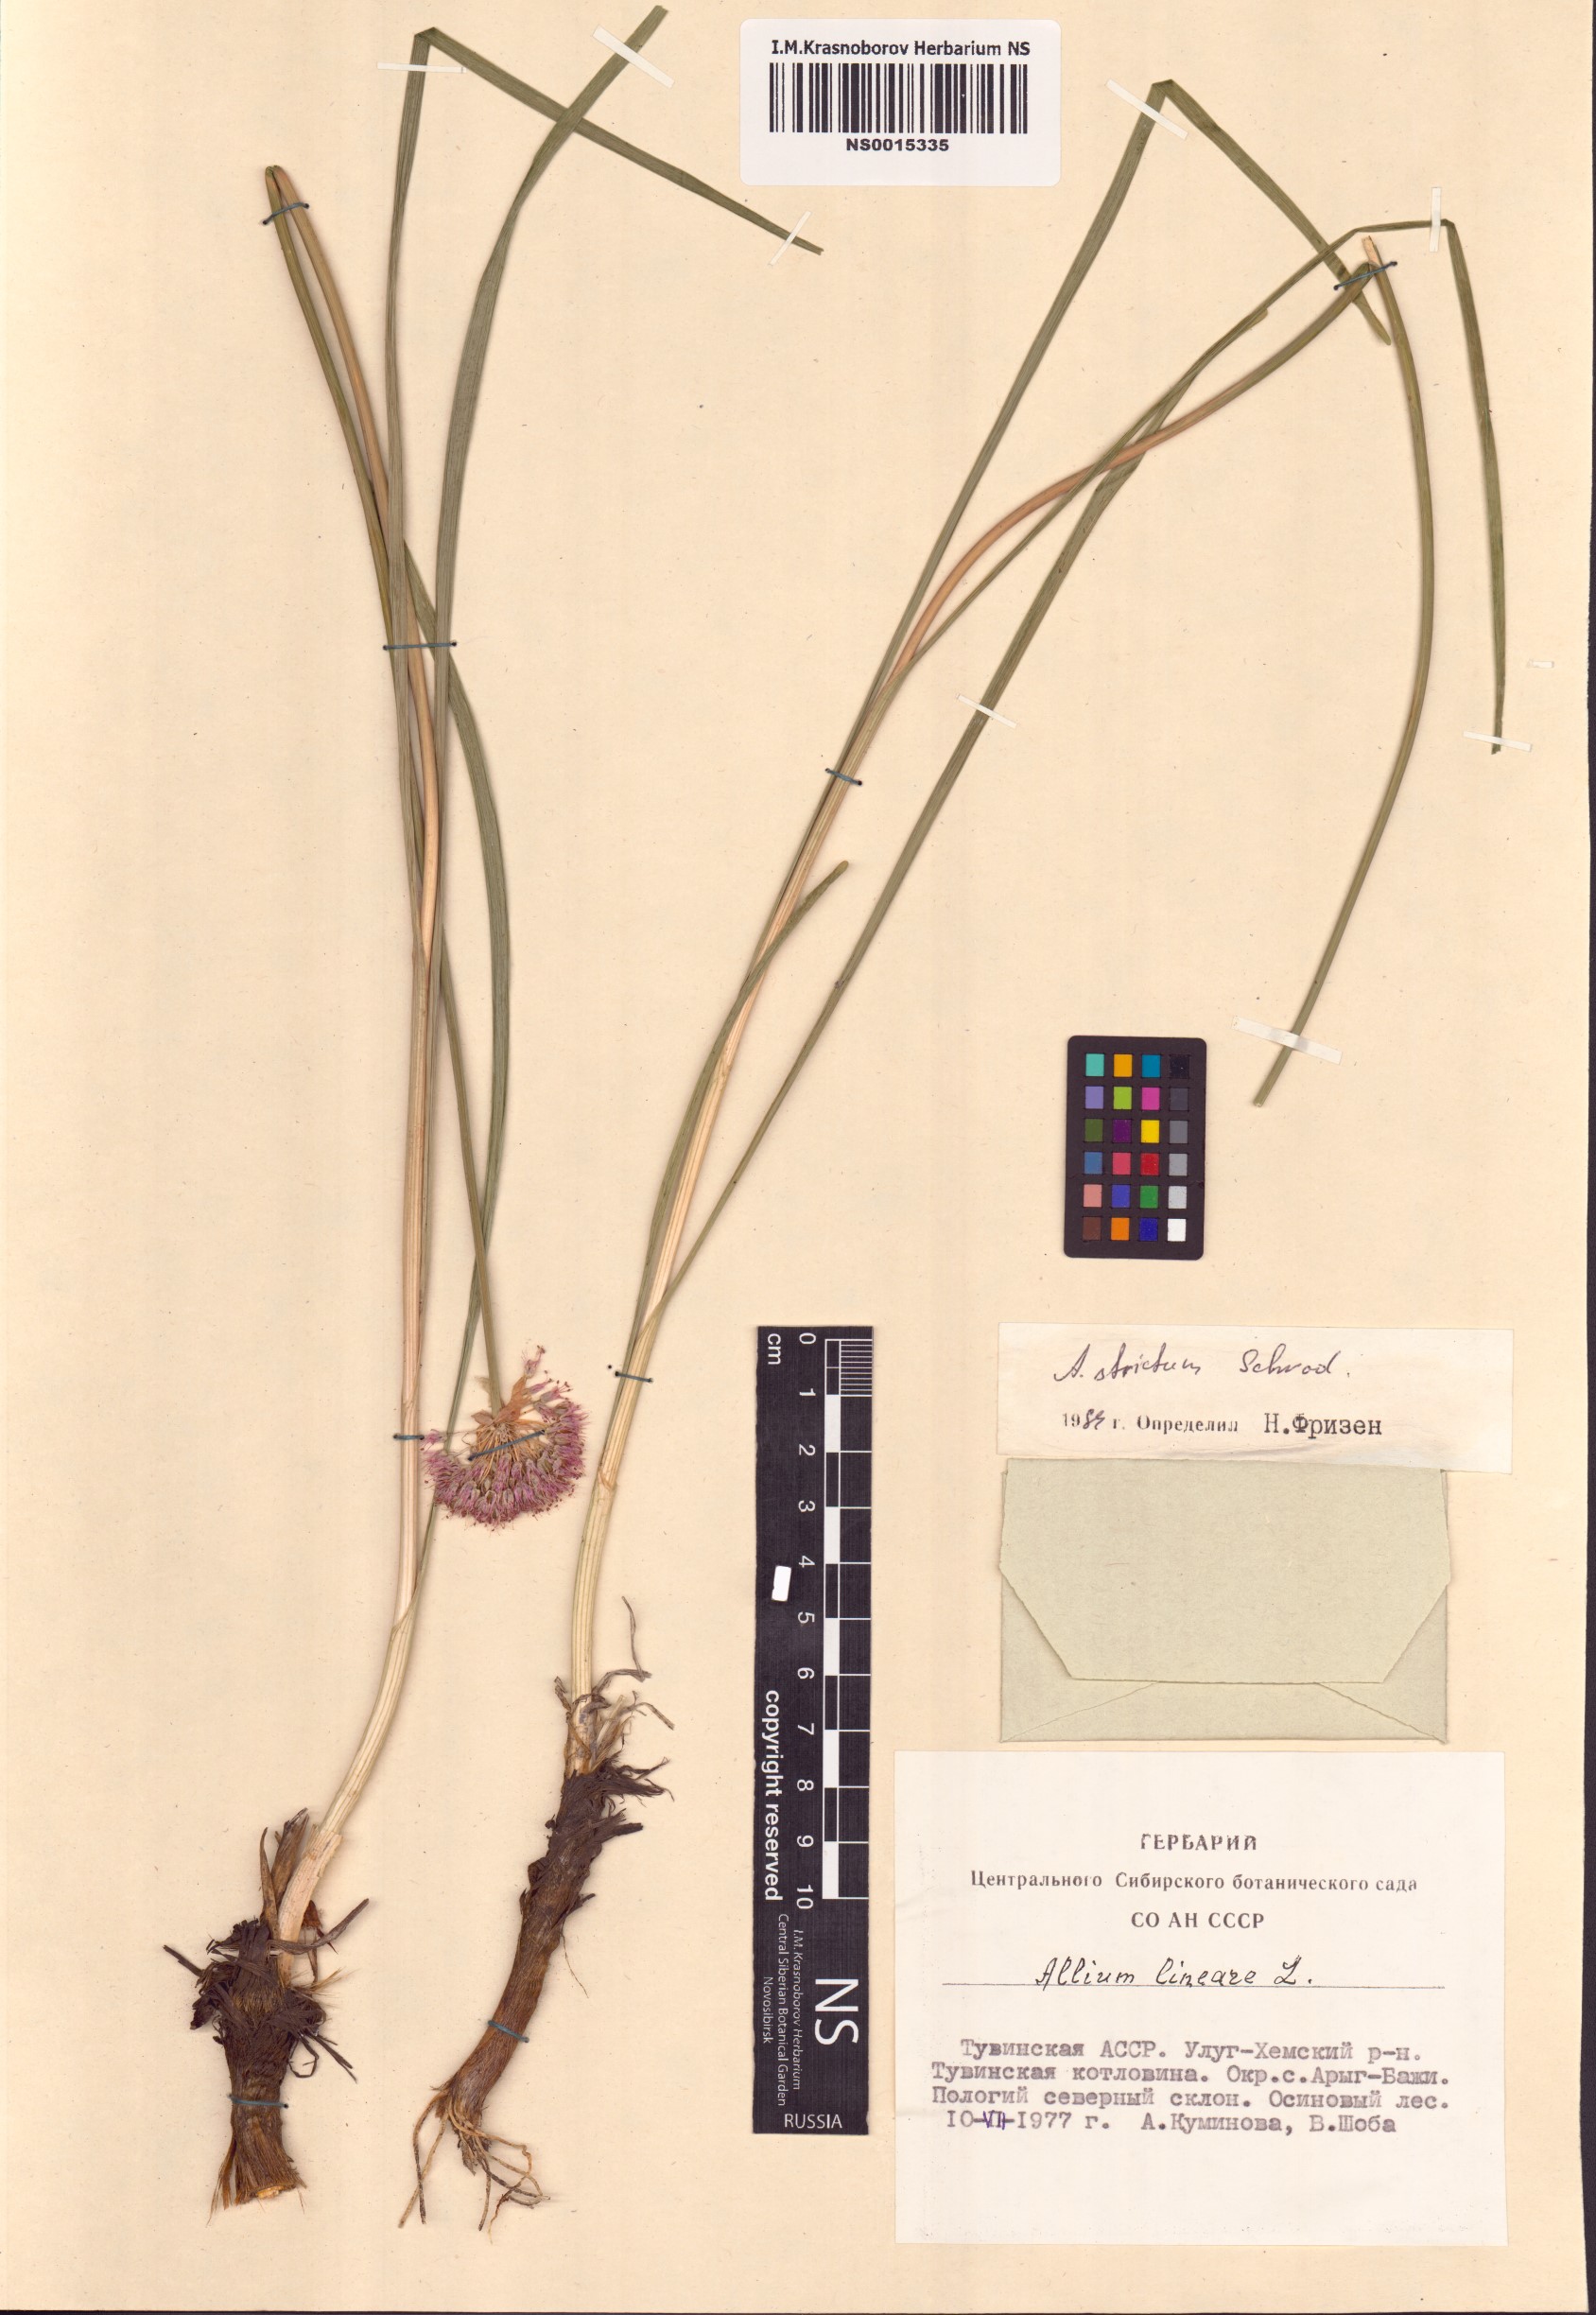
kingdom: Plantae
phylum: Tracheophyta
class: Liliopsida
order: Asparagales
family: Amaryllidaceae
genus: Allium
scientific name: Allium strictum
